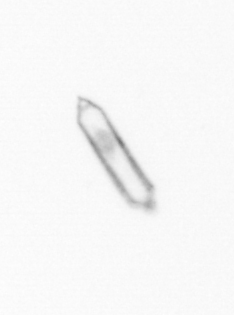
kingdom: Chromista
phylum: Ochrophyta
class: Bacillariophyceae
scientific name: Bacillariophyceae
